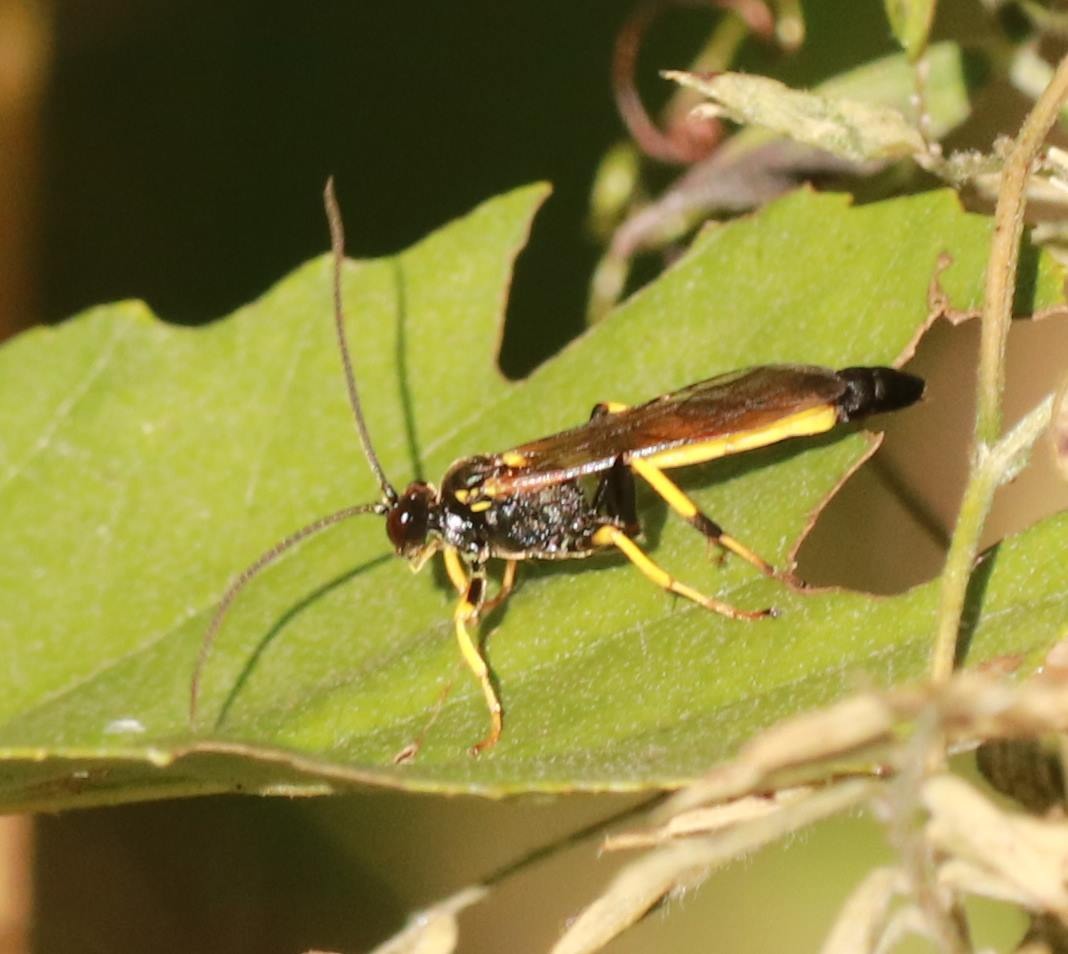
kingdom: Animalia
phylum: Arthropoda
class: Insecta
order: Hymenoptera
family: Ichneumonidae
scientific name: Ichneumonidae
